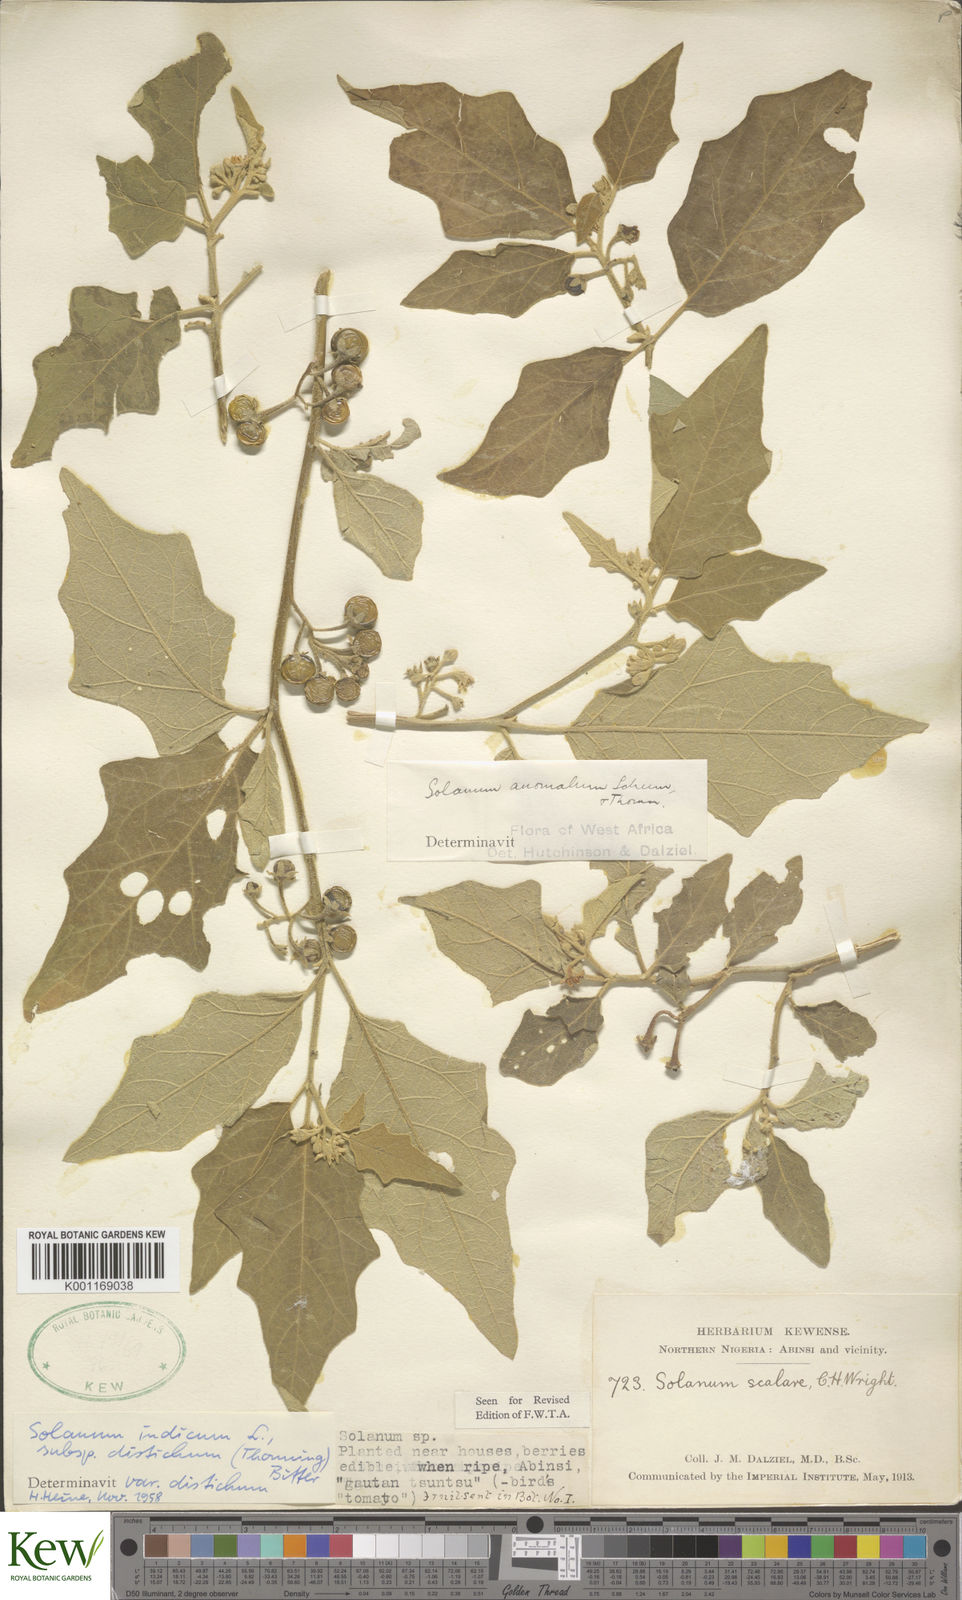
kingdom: Plantae
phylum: Tracheophyta
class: Magnoliopsida
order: Solanales
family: Solanaceae
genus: Solanum
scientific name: Solanum anguivi
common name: Forest bitterberry
